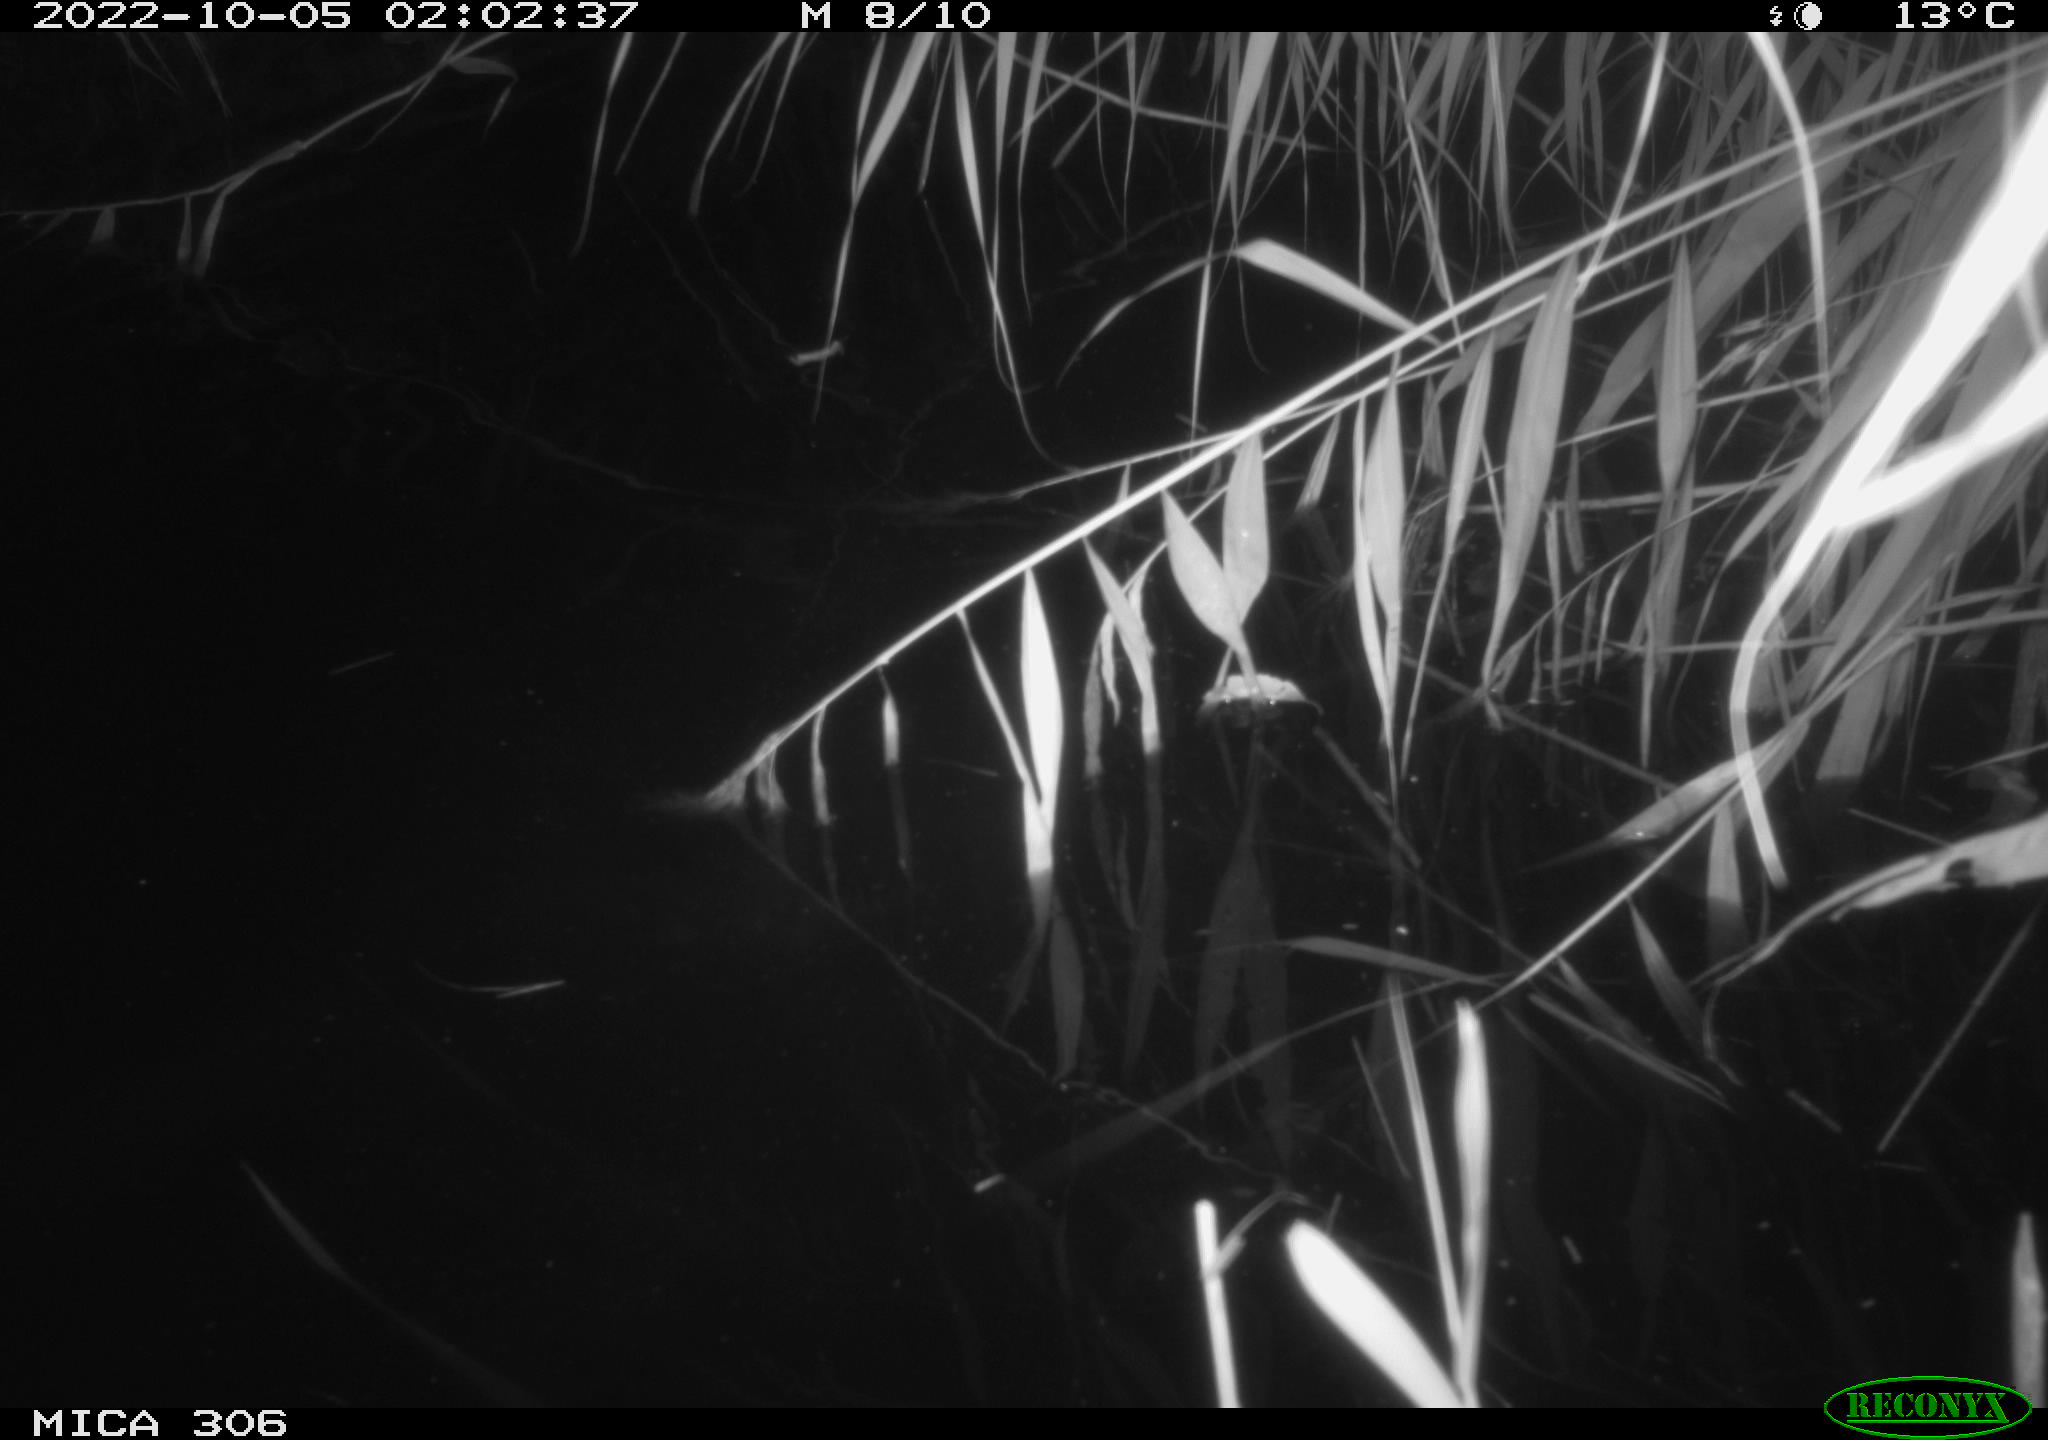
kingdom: Animalia
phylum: Chordata
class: Mammalia
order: Rodentia
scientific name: Rodentia
